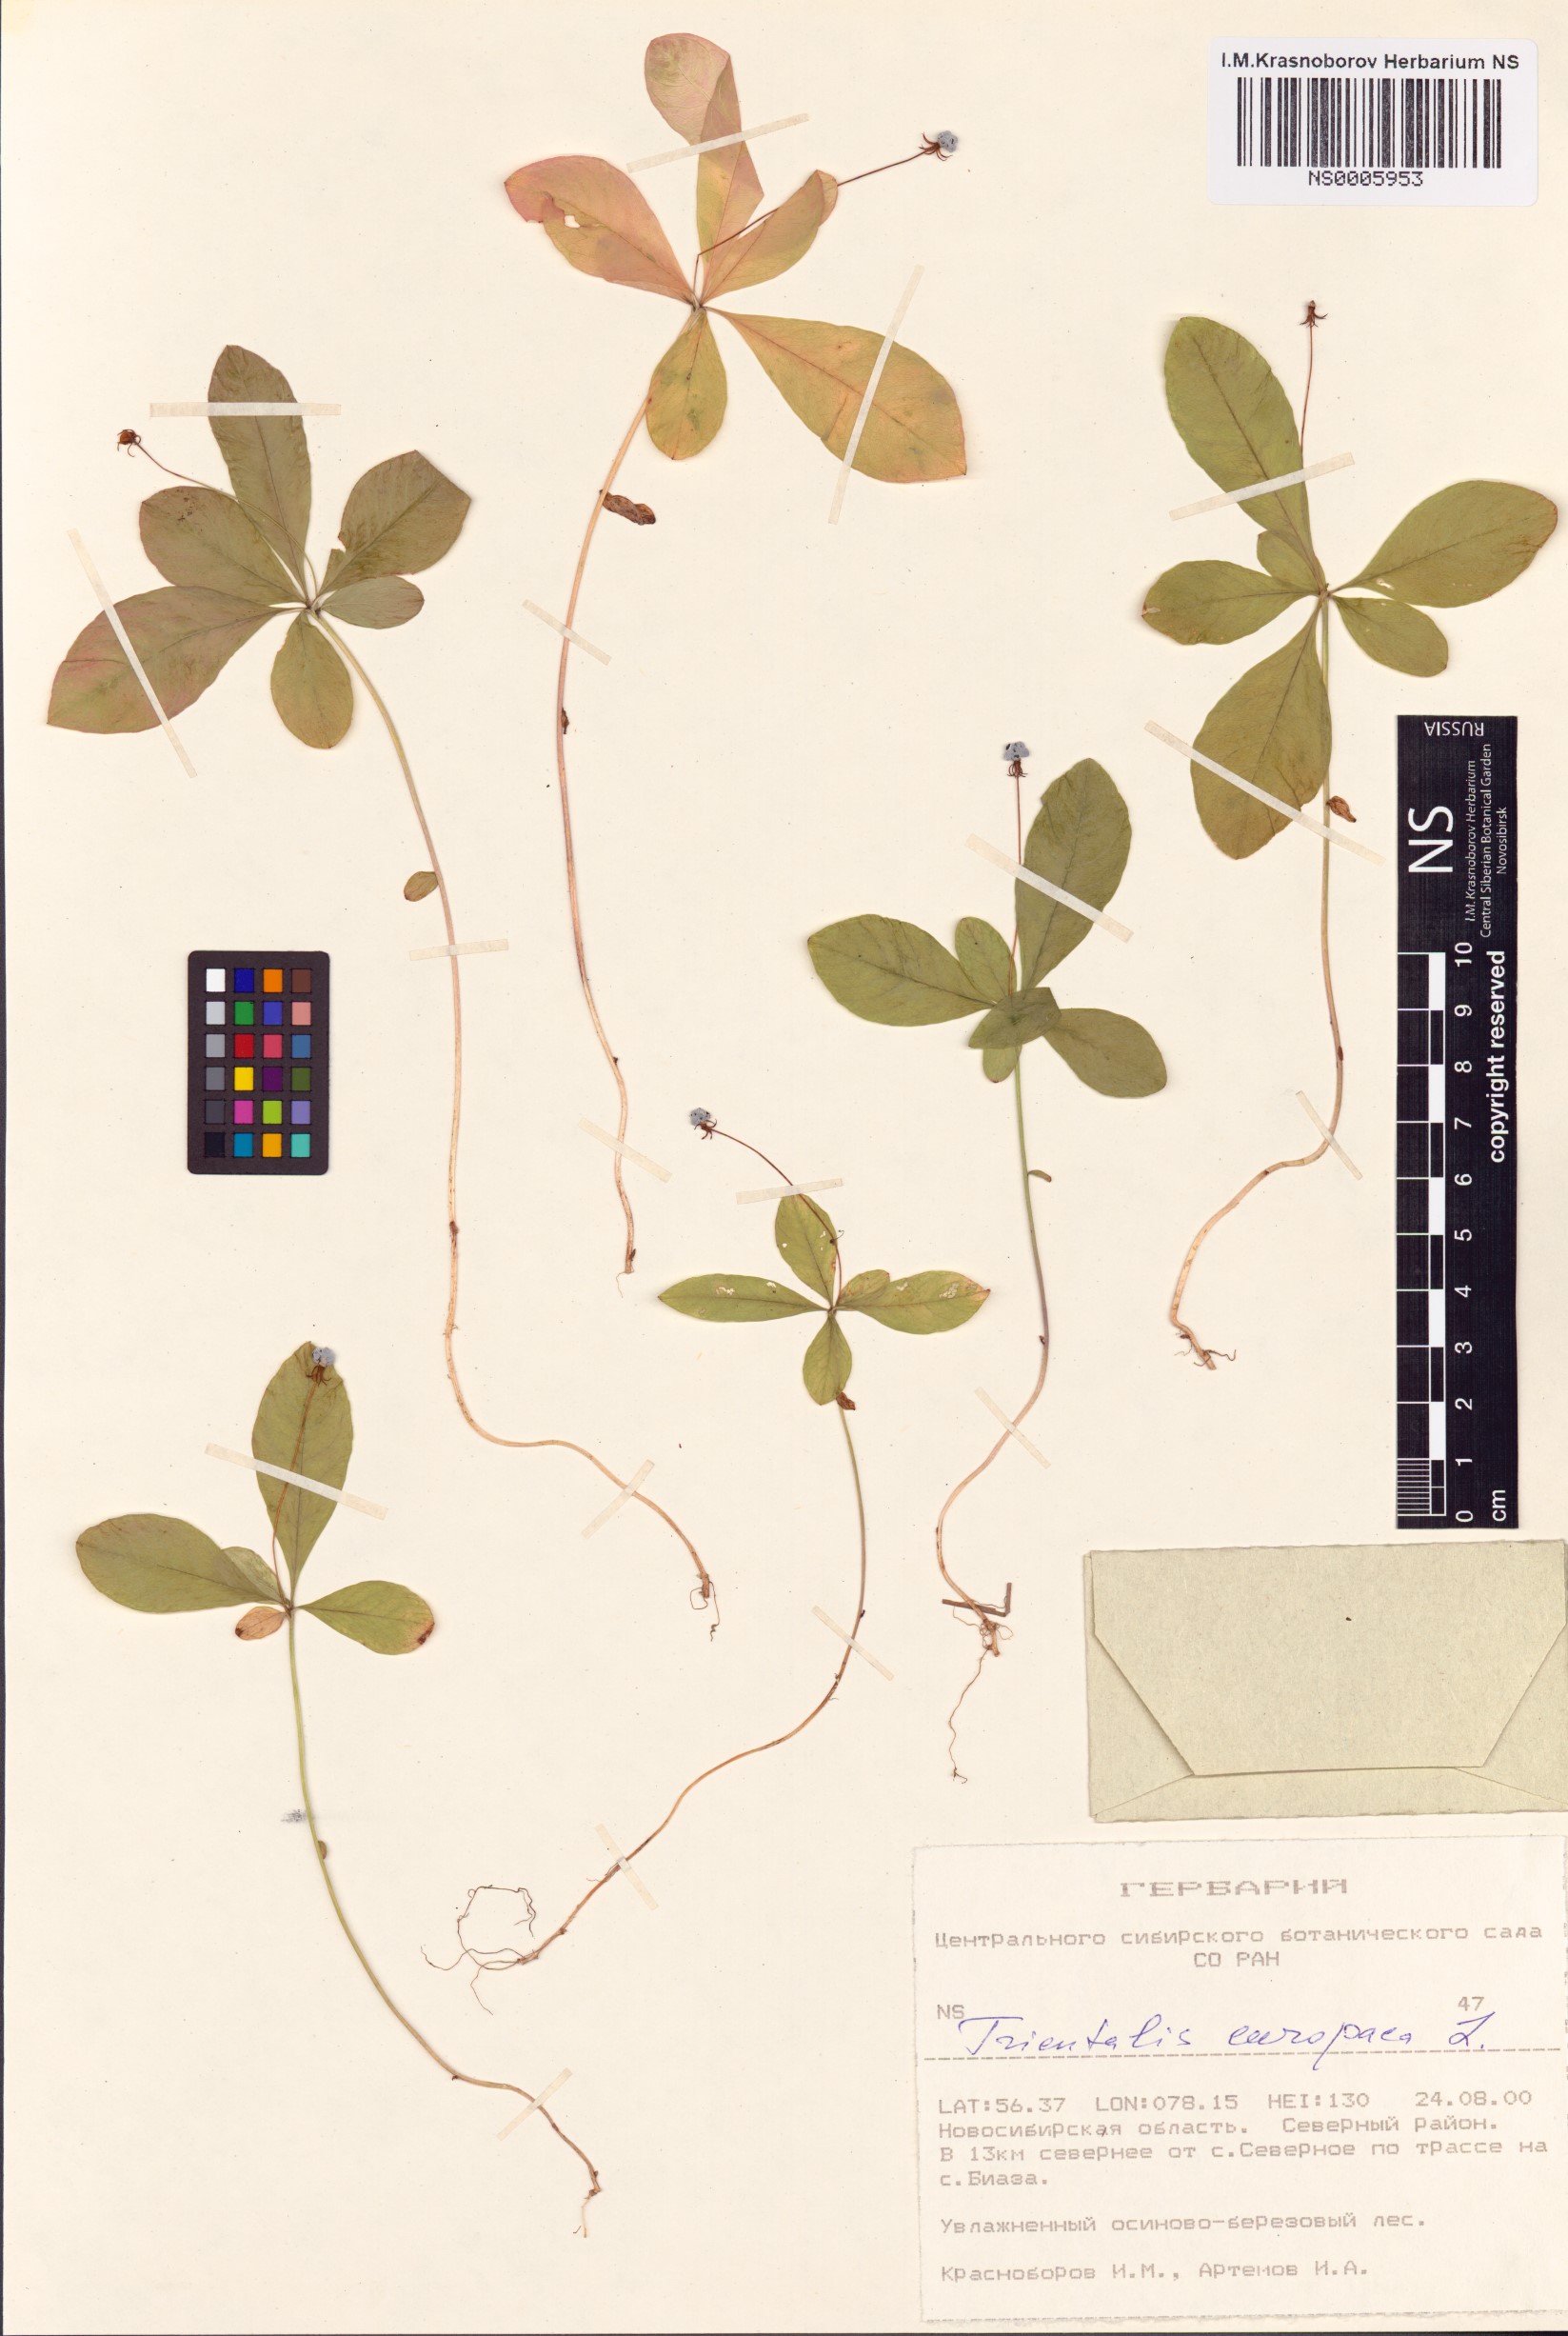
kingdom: Plantae
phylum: Tracheophyta
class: Magnoliopsida
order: Ericales
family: Primulaceae
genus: Lysimachia
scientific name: Lysimachia europaea
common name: Arctic starflower
